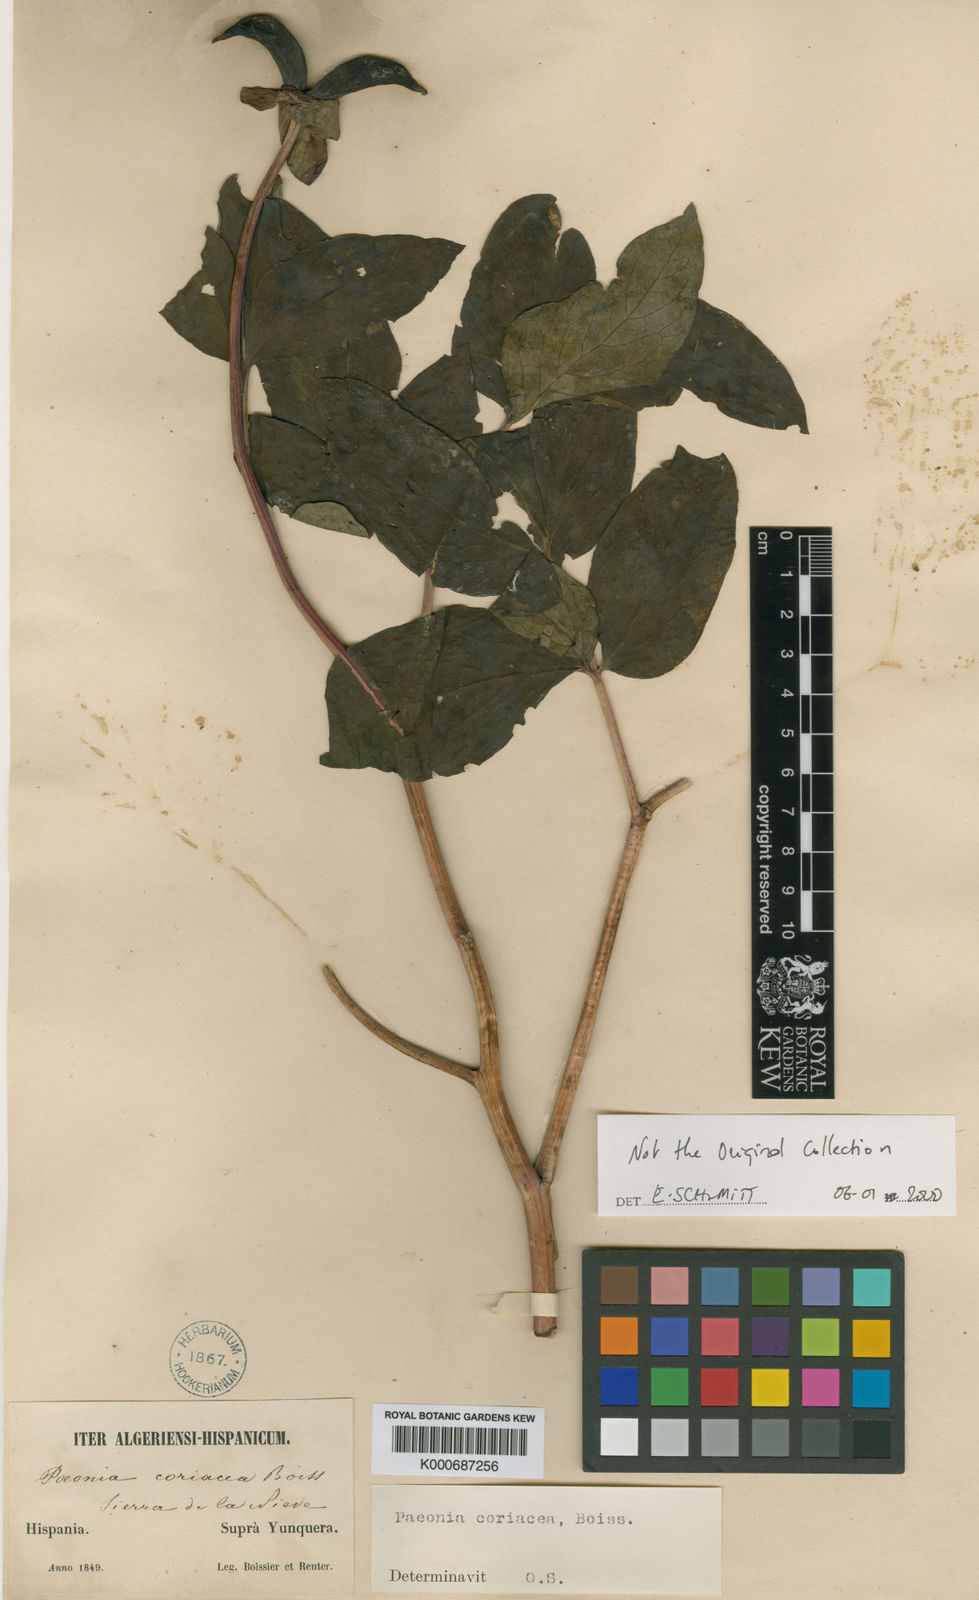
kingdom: Plantae
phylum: Tracheophyta
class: Magnoliopsida
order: Saxifragales
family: Paeoniaceae
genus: Paeonia
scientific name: Paeonia
